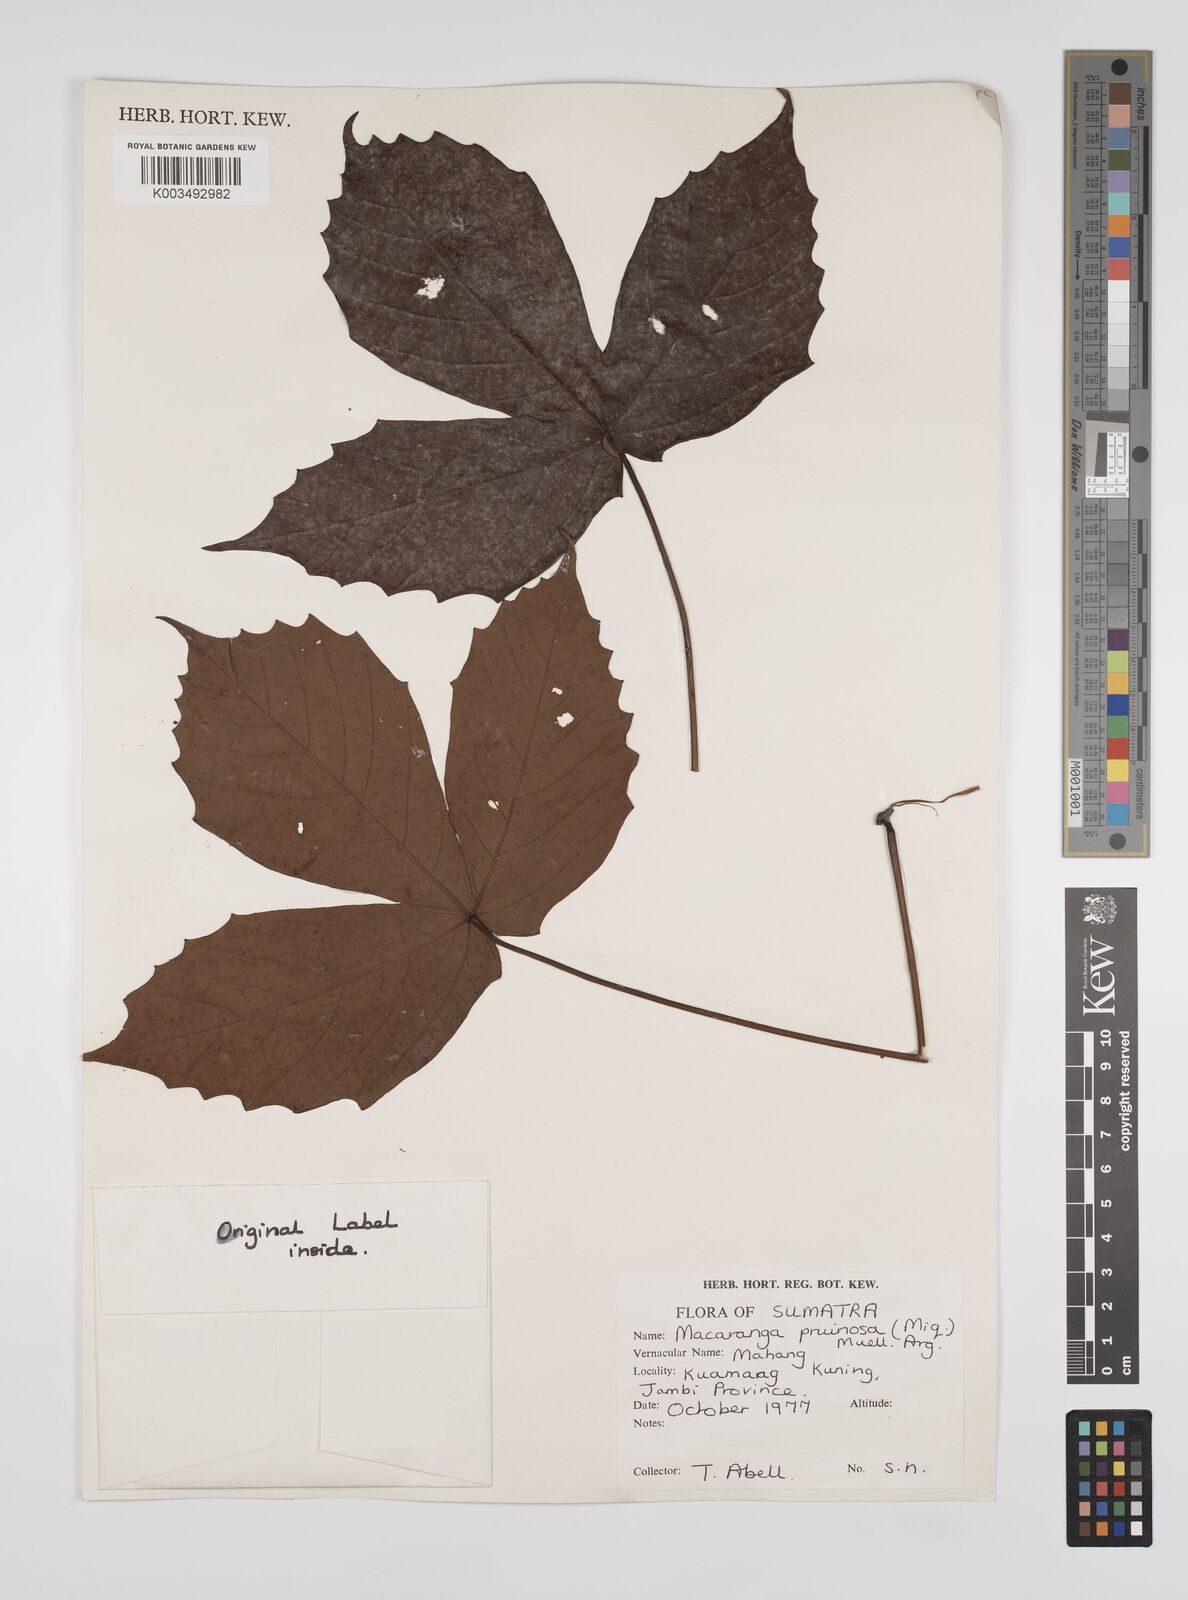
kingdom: Plantae
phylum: Tracheophyta
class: Magnoliopsida
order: Malpighiales
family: Euphorbiaceae
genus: Macaranga
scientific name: Macaranga pruinosa
